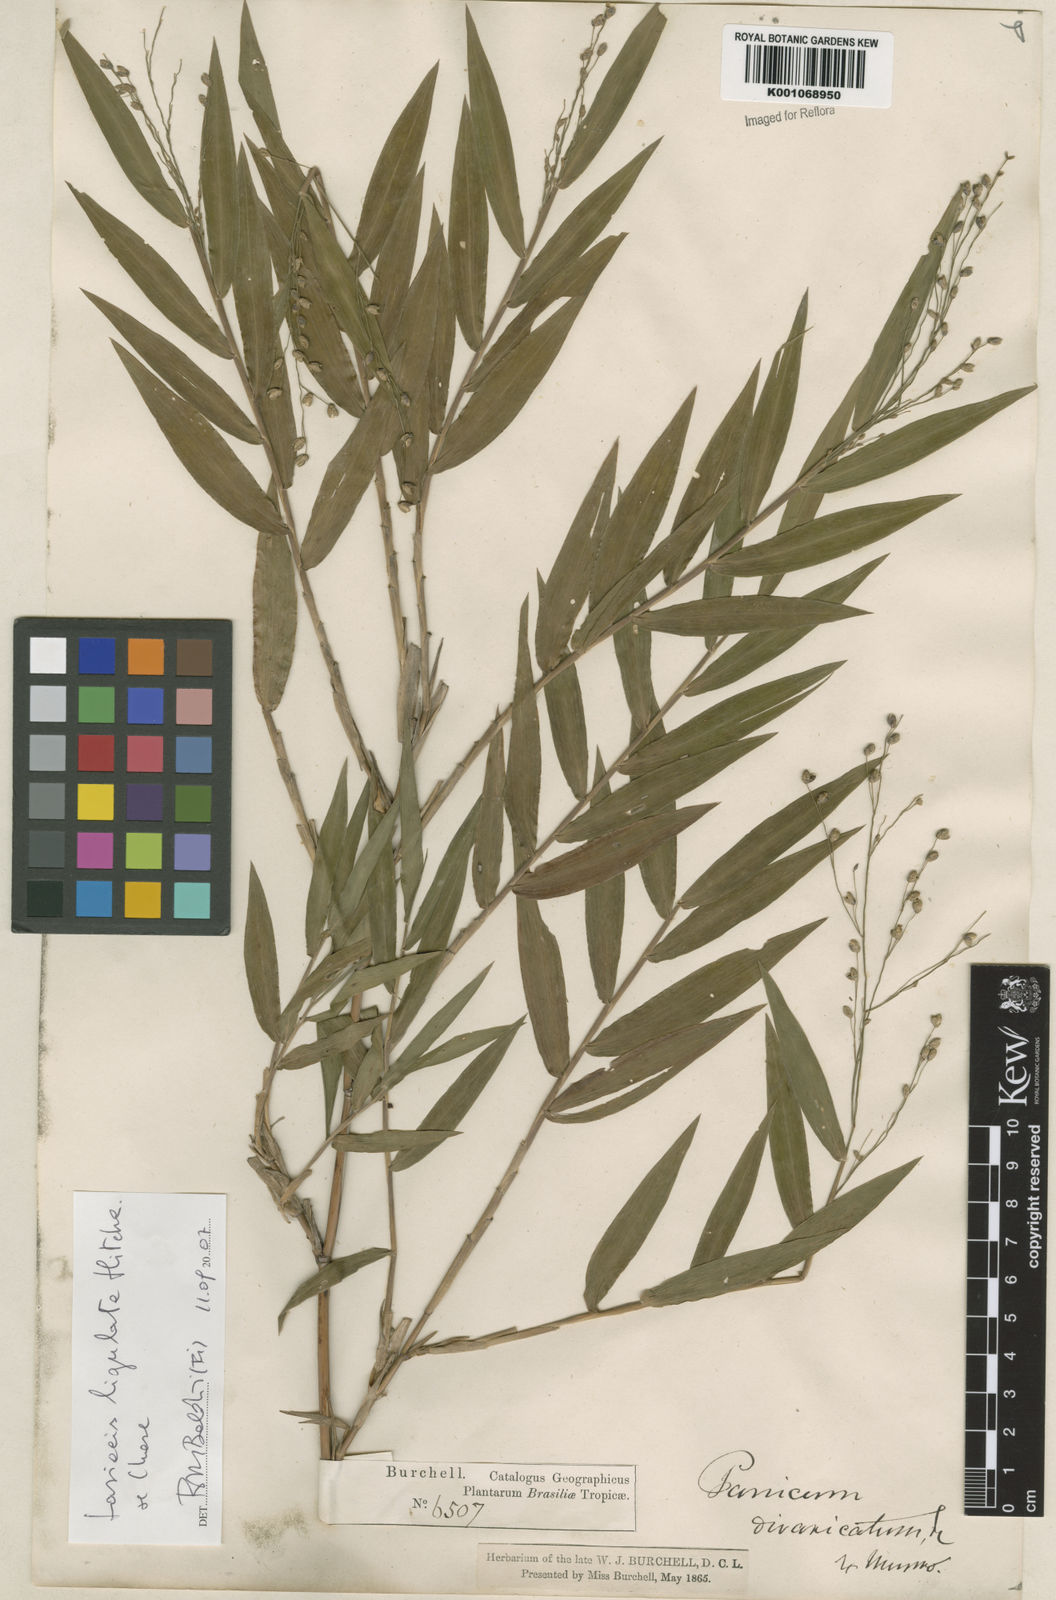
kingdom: Plantae
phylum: Tracheophyta
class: Liliopsida
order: Poales
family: Poaceae
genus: Lasiacis
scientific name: Lasiacis ligulata
